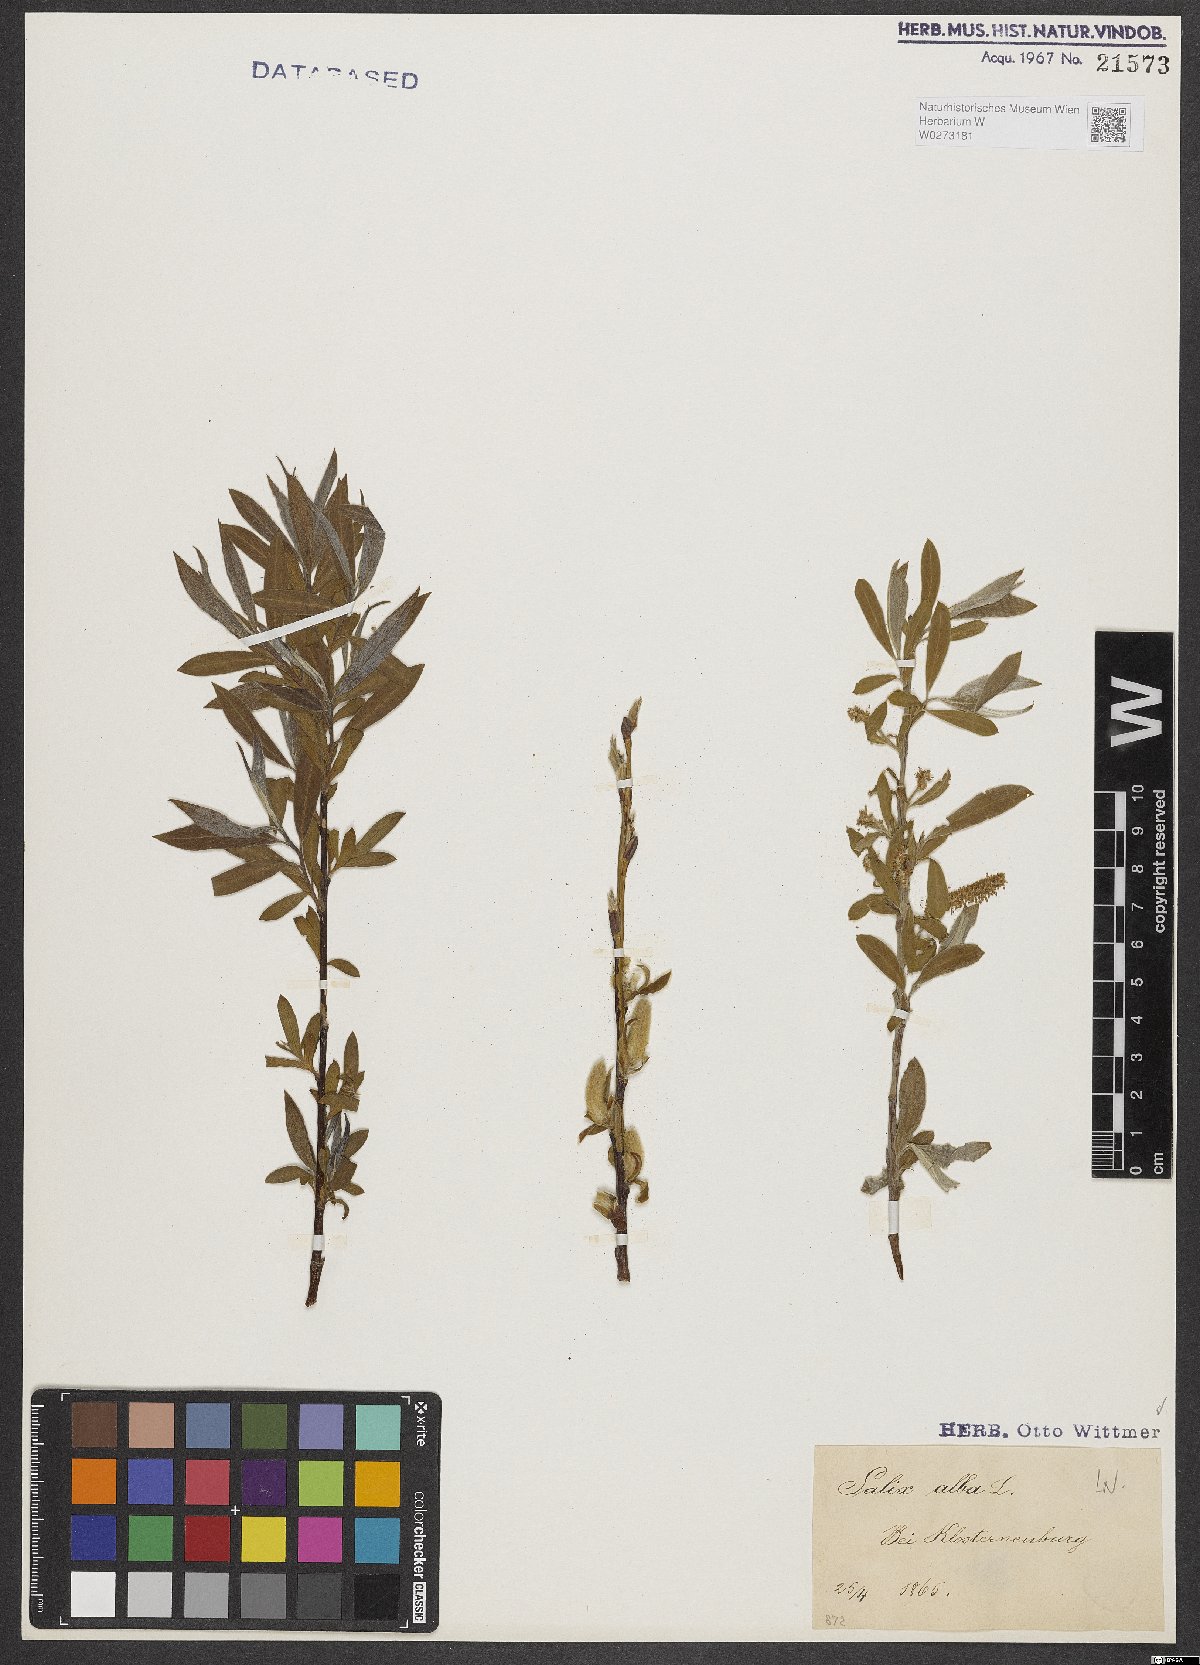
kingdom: Plantae
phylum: Tracheophyta
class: Magnoliopsida
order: Malpighiales
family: Salicaceae
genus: Salix
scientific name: Salix alba
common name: White willow
